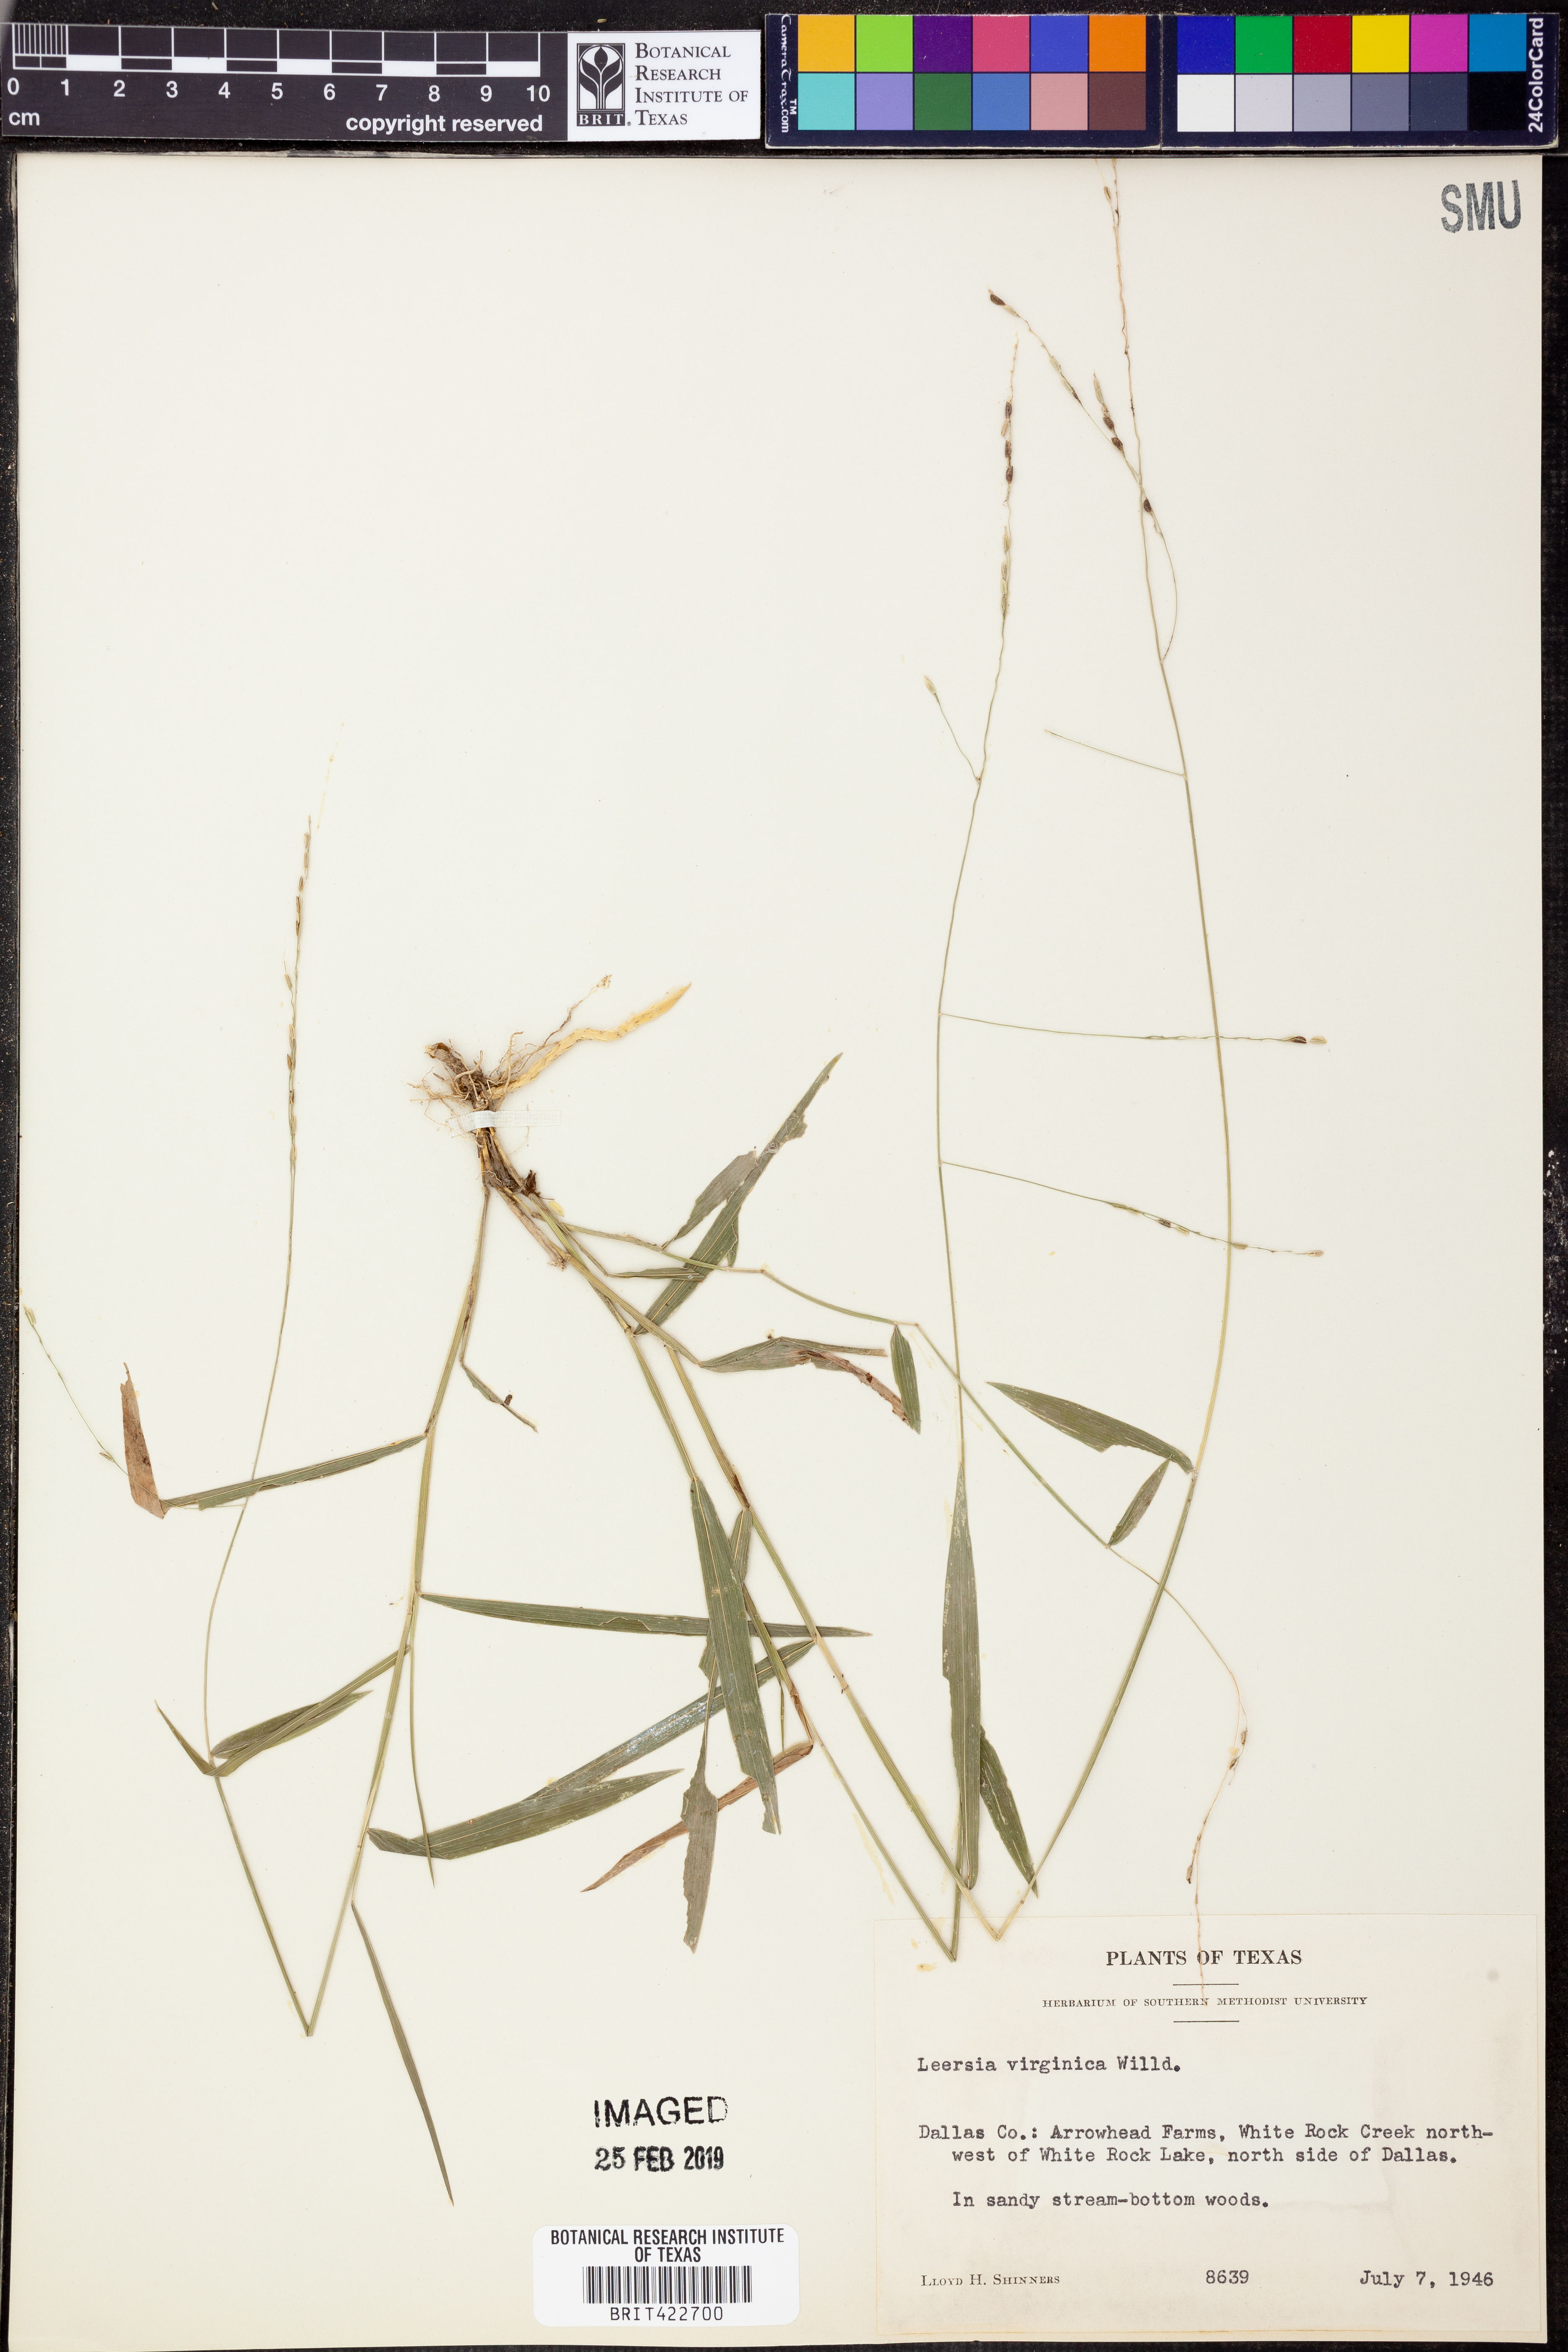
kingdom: Plantae
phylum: Tracheophyta
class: Liliopsida
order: Poales
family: Poaceae
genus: Leersia
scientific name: Leersia virginica
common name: White cutgrass
